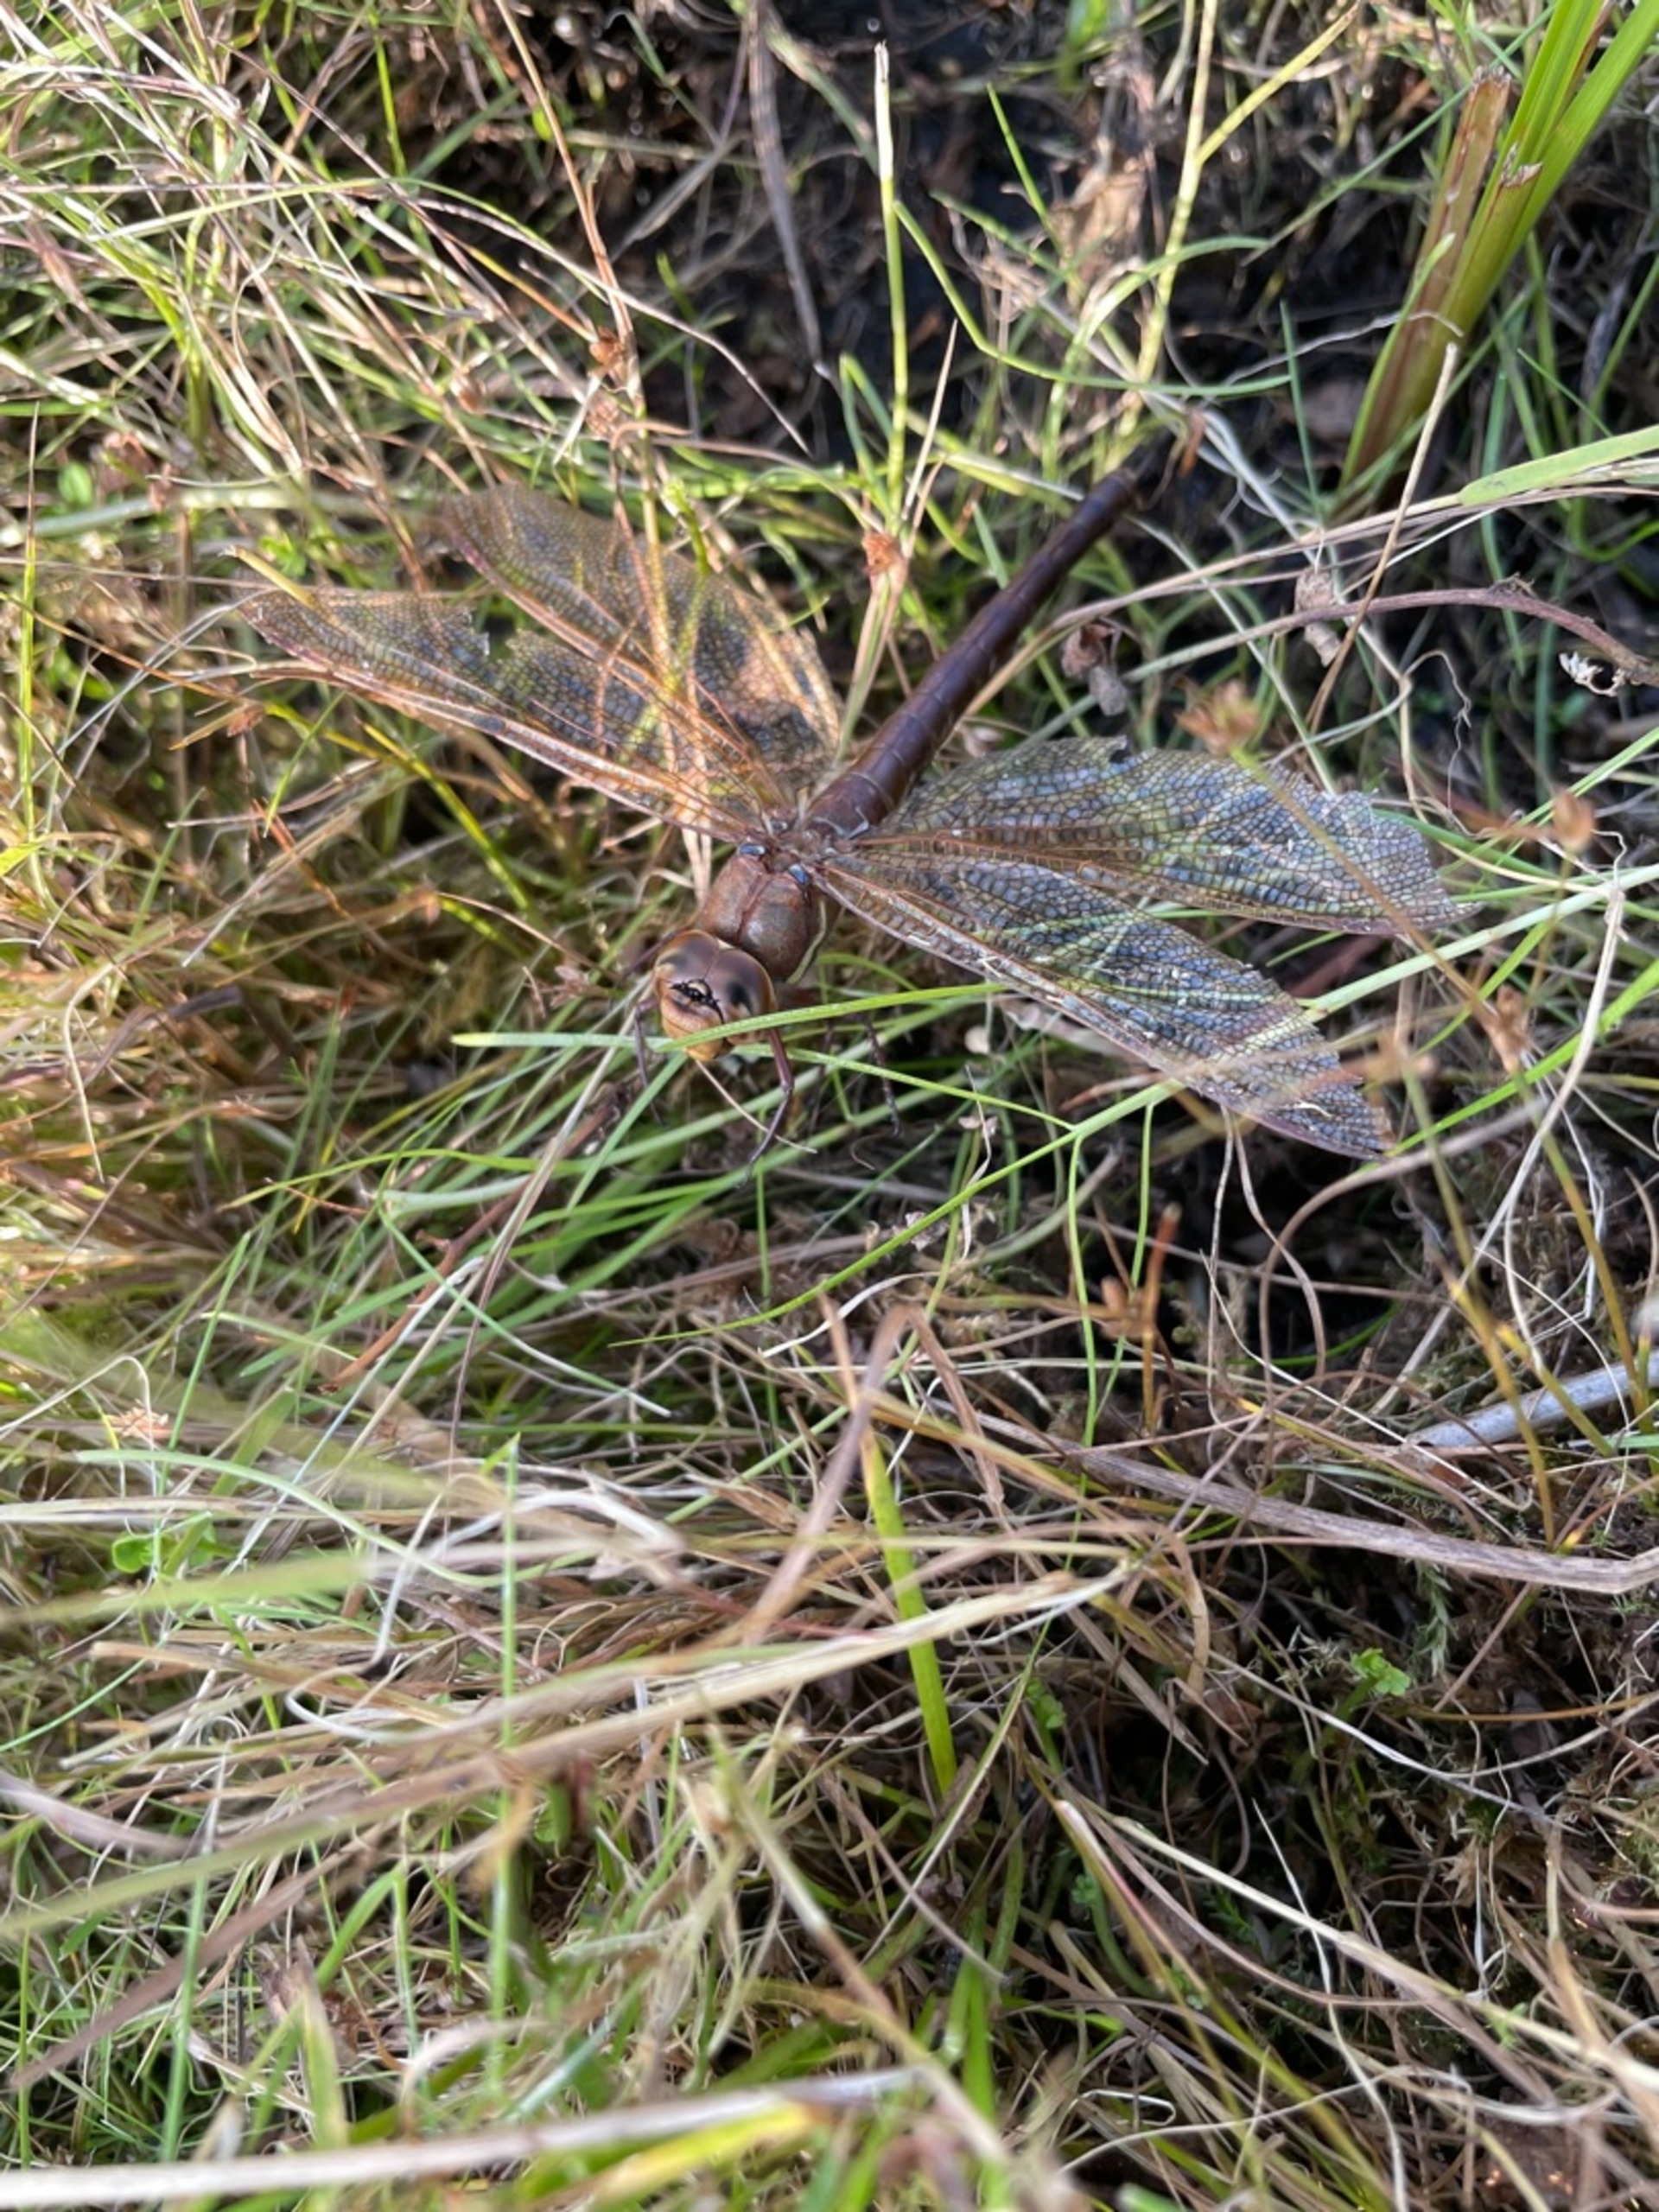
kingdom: Animalia
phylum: Arthropoda
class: Insecta
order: Odonata
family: Aeshnidae
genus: Aeshna
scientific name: Aeshna grandis
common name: Brun mosaikguldsmed
